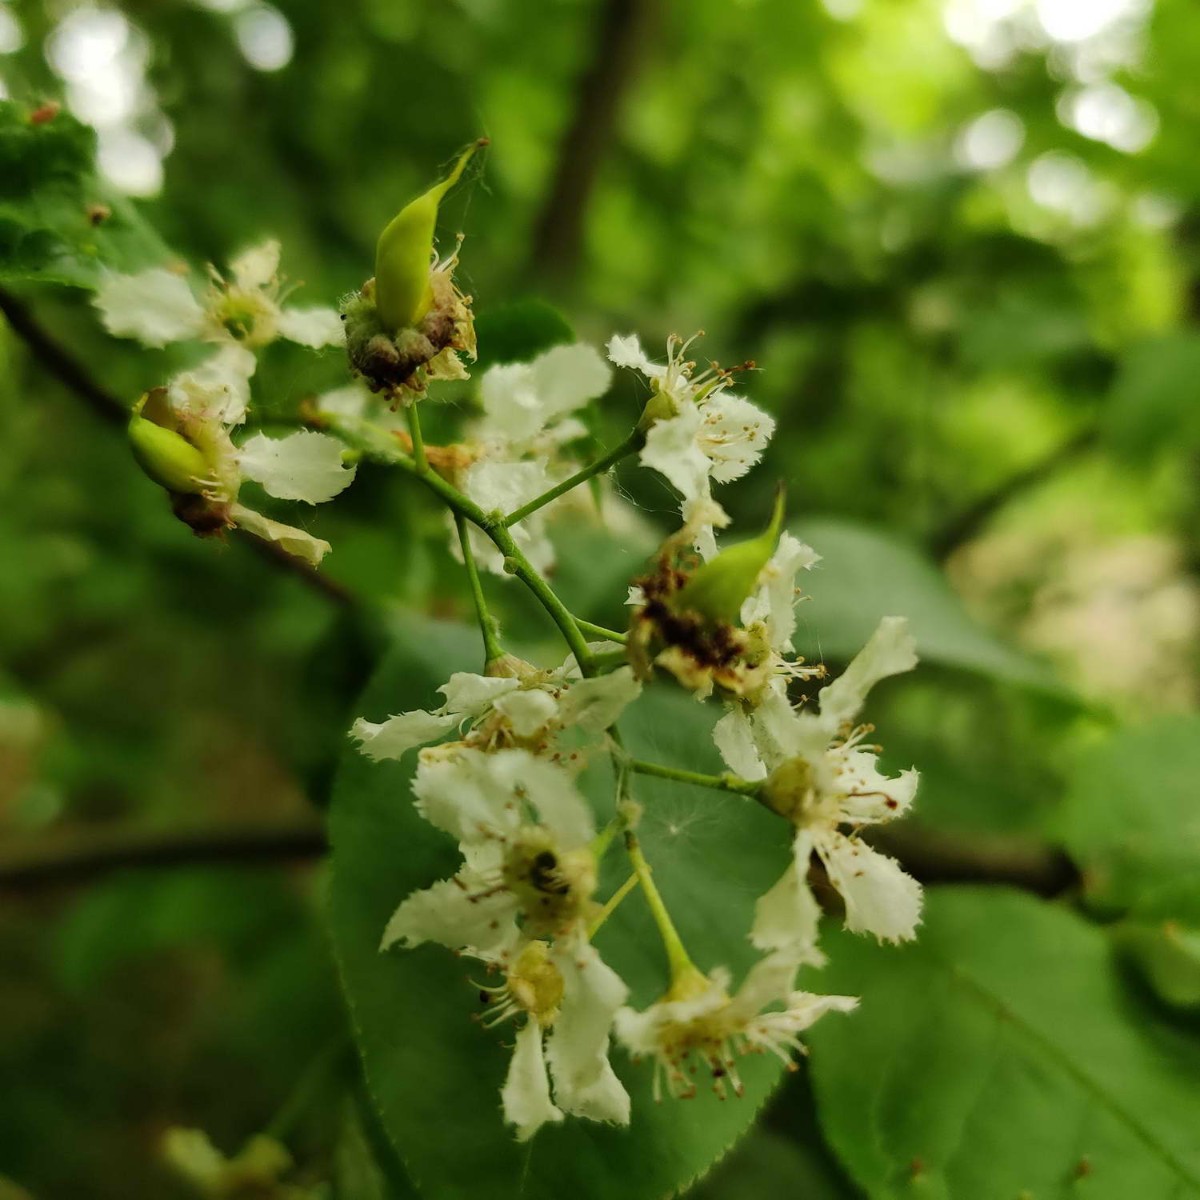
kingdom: Fungi
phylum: Ascomycota
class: Taphrinomycetes
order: Taphrinales
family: Taphrinaceae
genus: Taphrina
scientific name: Taphrina padi
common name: Bird cherry pocket
